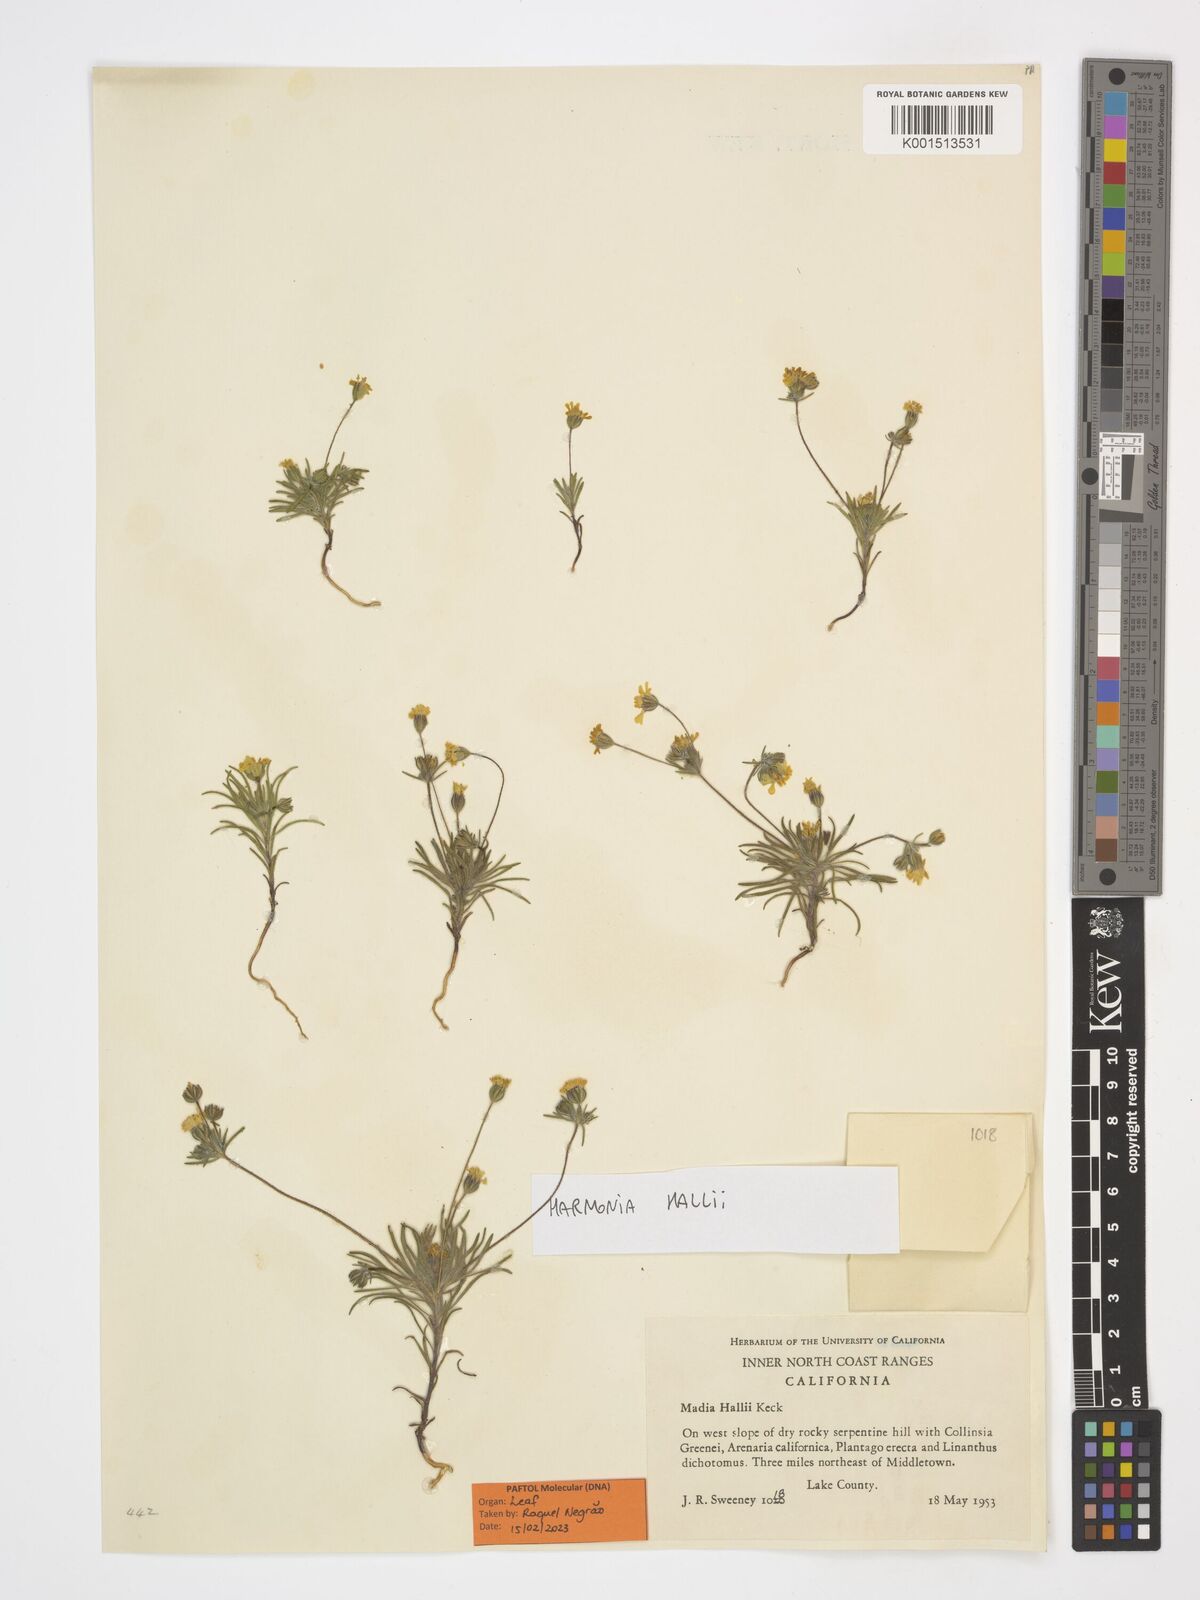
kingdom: Plantae
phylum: Tracheophyta
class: Magnoliopsida
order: Asterales
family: Asteraceae
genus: Harmonia
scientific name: Harmonia hallii
